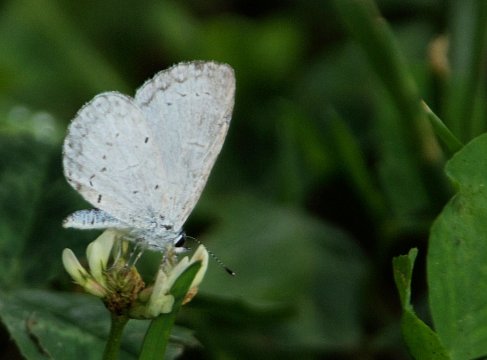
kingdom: Animalia
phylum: Arthropoda
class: Insecta
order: Lepidoptera
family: Lycaenidae
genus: Celastrina
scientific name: Celastrina neglectamajor
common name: Appalachian Azure
